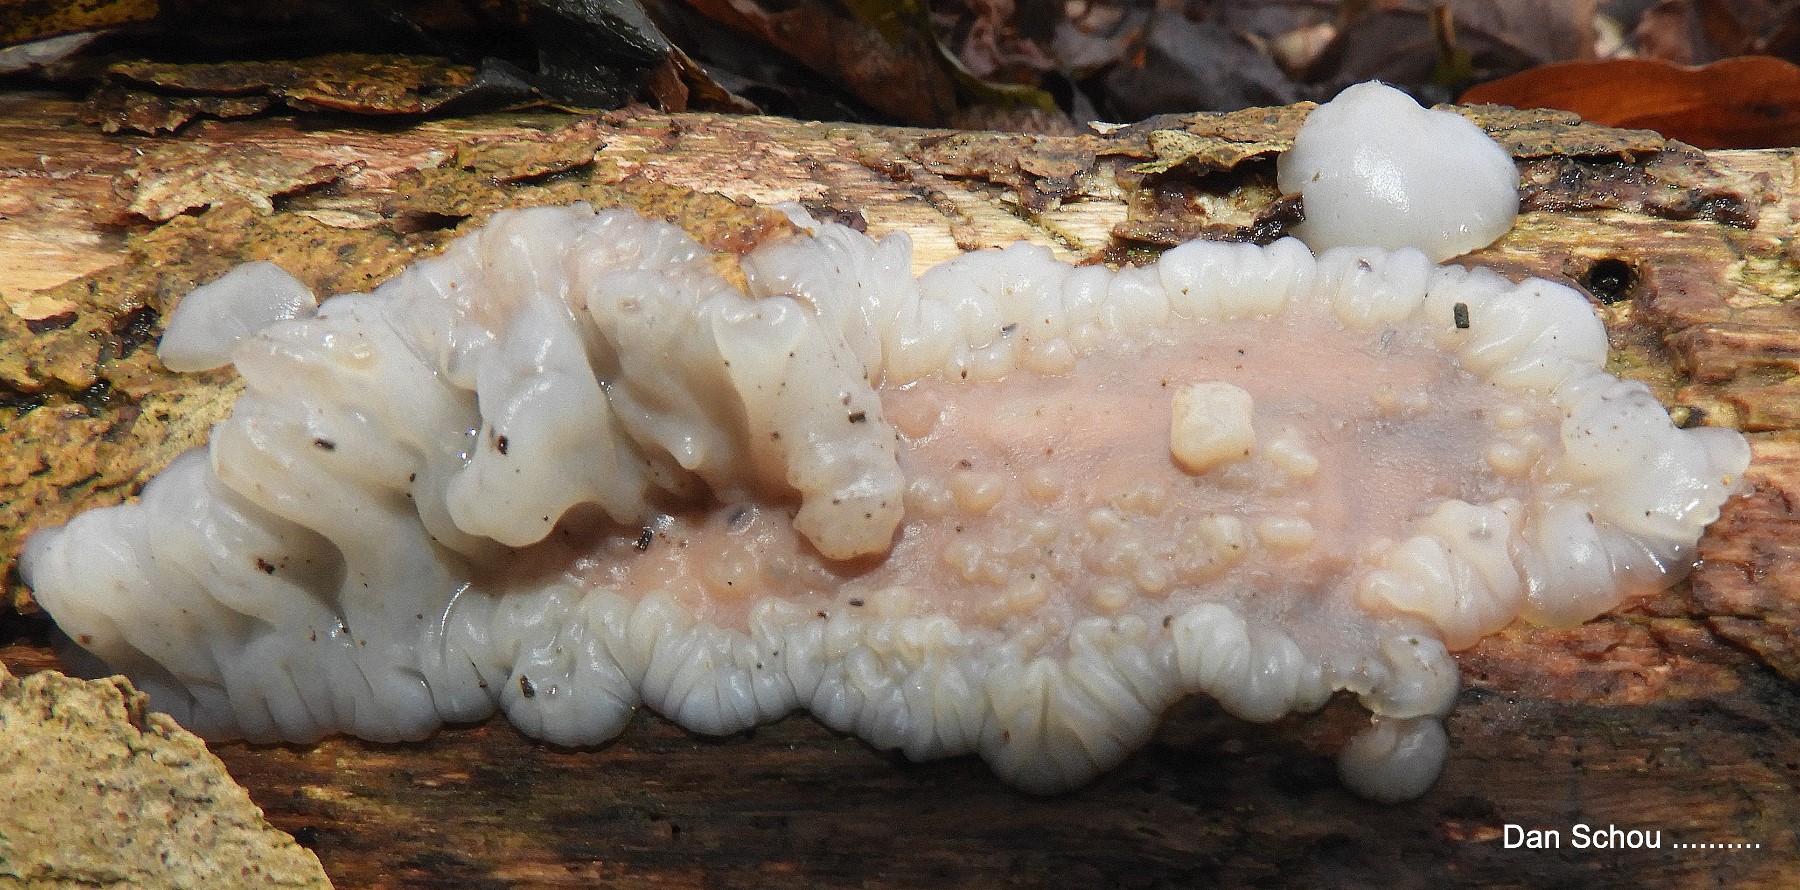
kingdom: Fungi
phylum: Basidiomycota
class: Agaricomycetes
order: Auriculariales
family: Auriculariaceae
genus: Exidia
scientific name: Exidia thuretiana
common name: hvidlig bævretop
